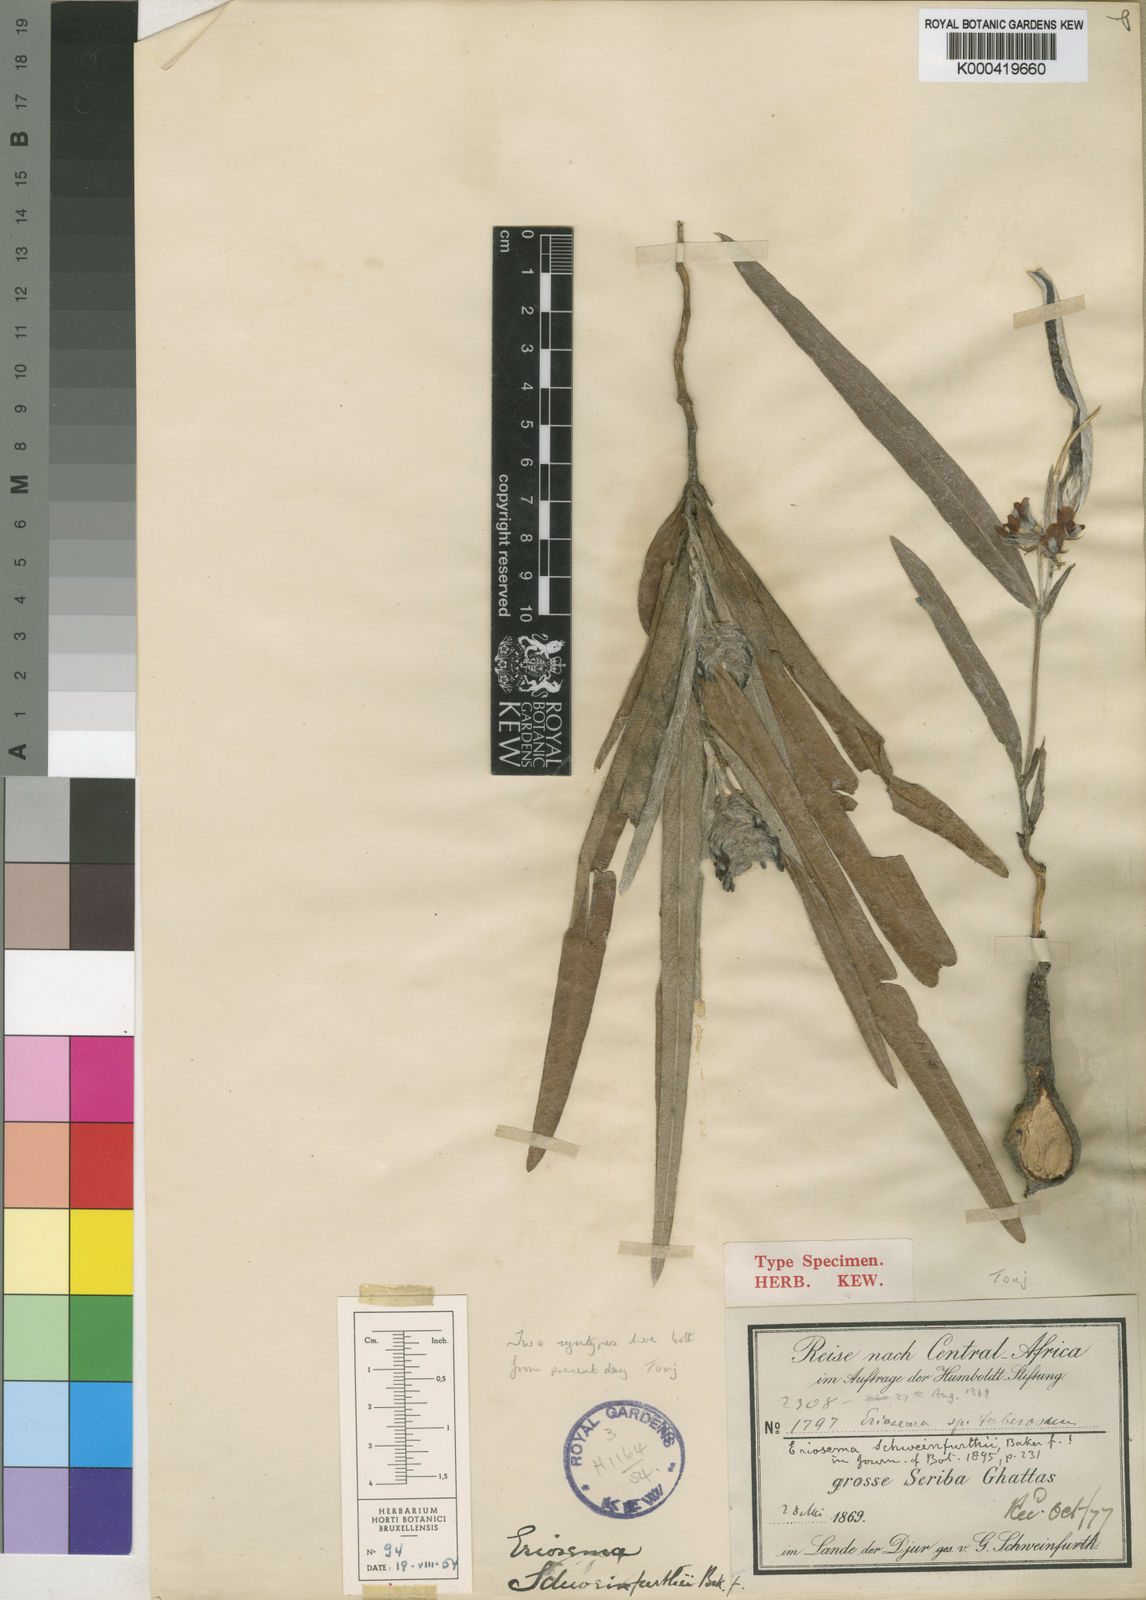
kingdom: Plantae
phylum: Tracheophyta
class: Magnoliopsida
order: Fabales
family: Fabaceae
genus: Eriosema
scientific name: Eriosema schweinfurthii
